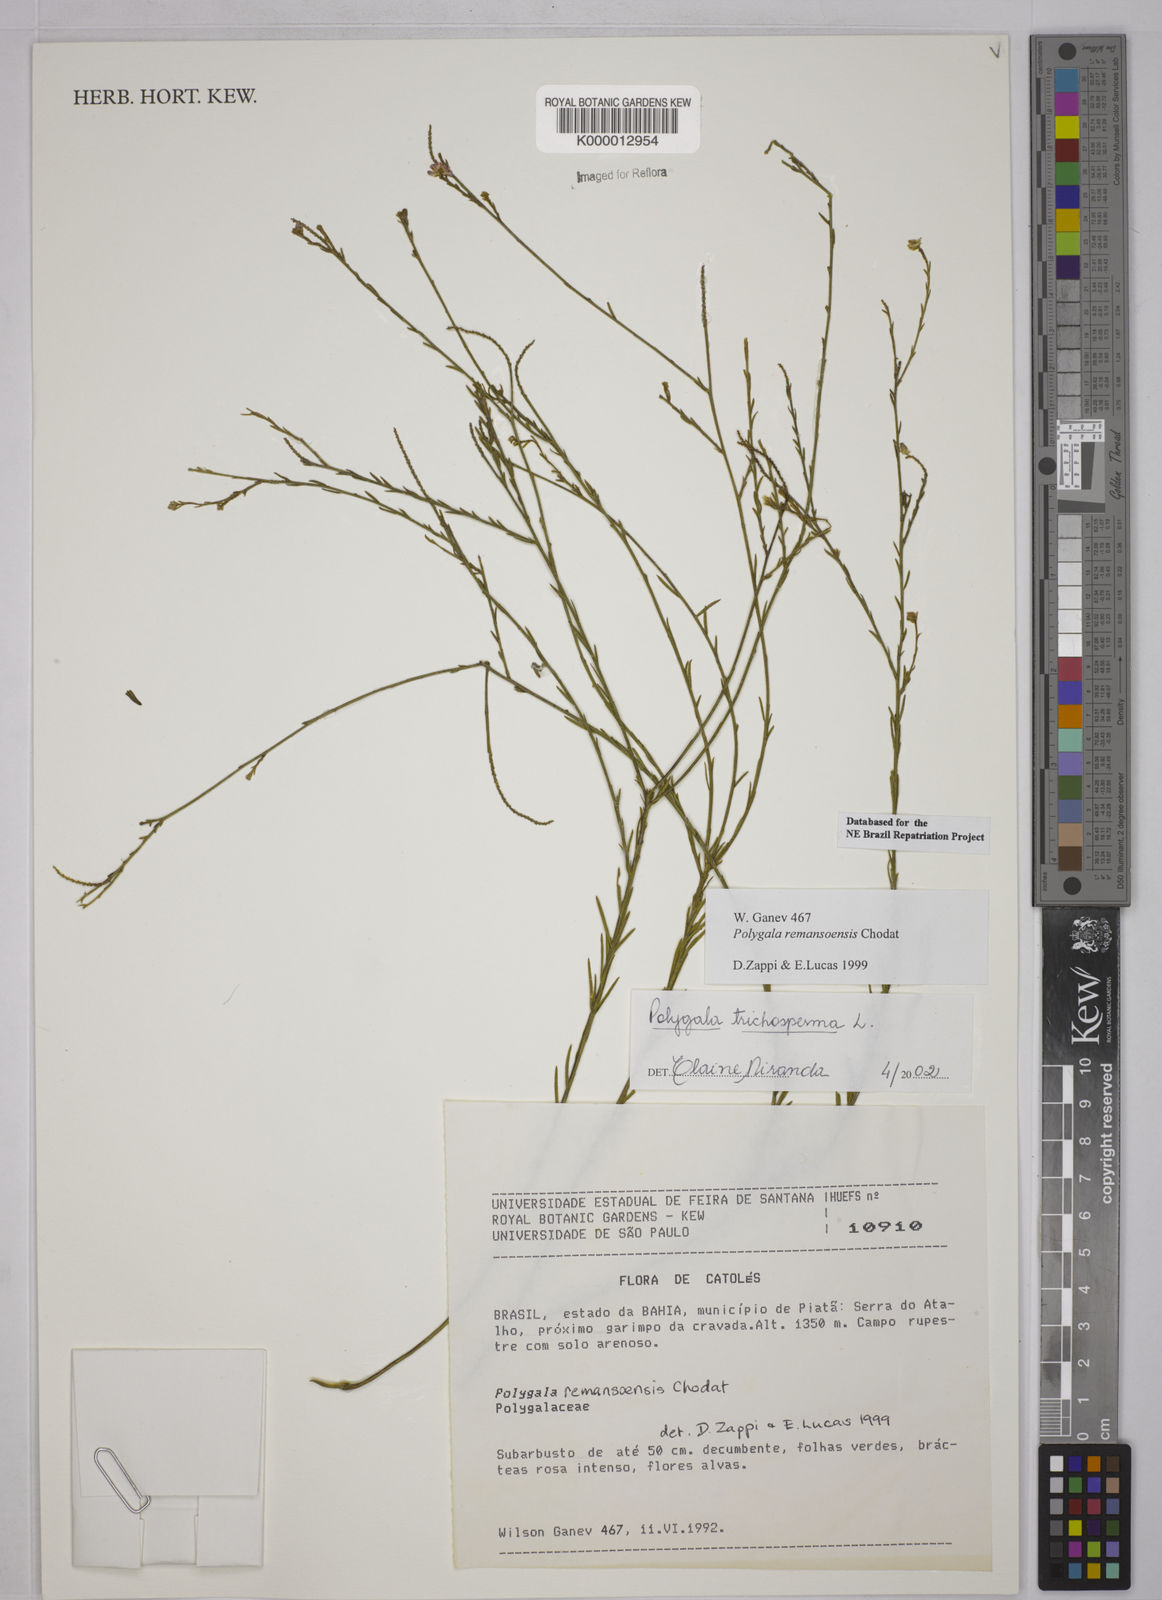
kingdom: Plantae
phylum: Tracheophyta
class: Magnoliopsida
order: Fabales
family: Polygalaceae
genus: Polygala
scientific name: Polygala
